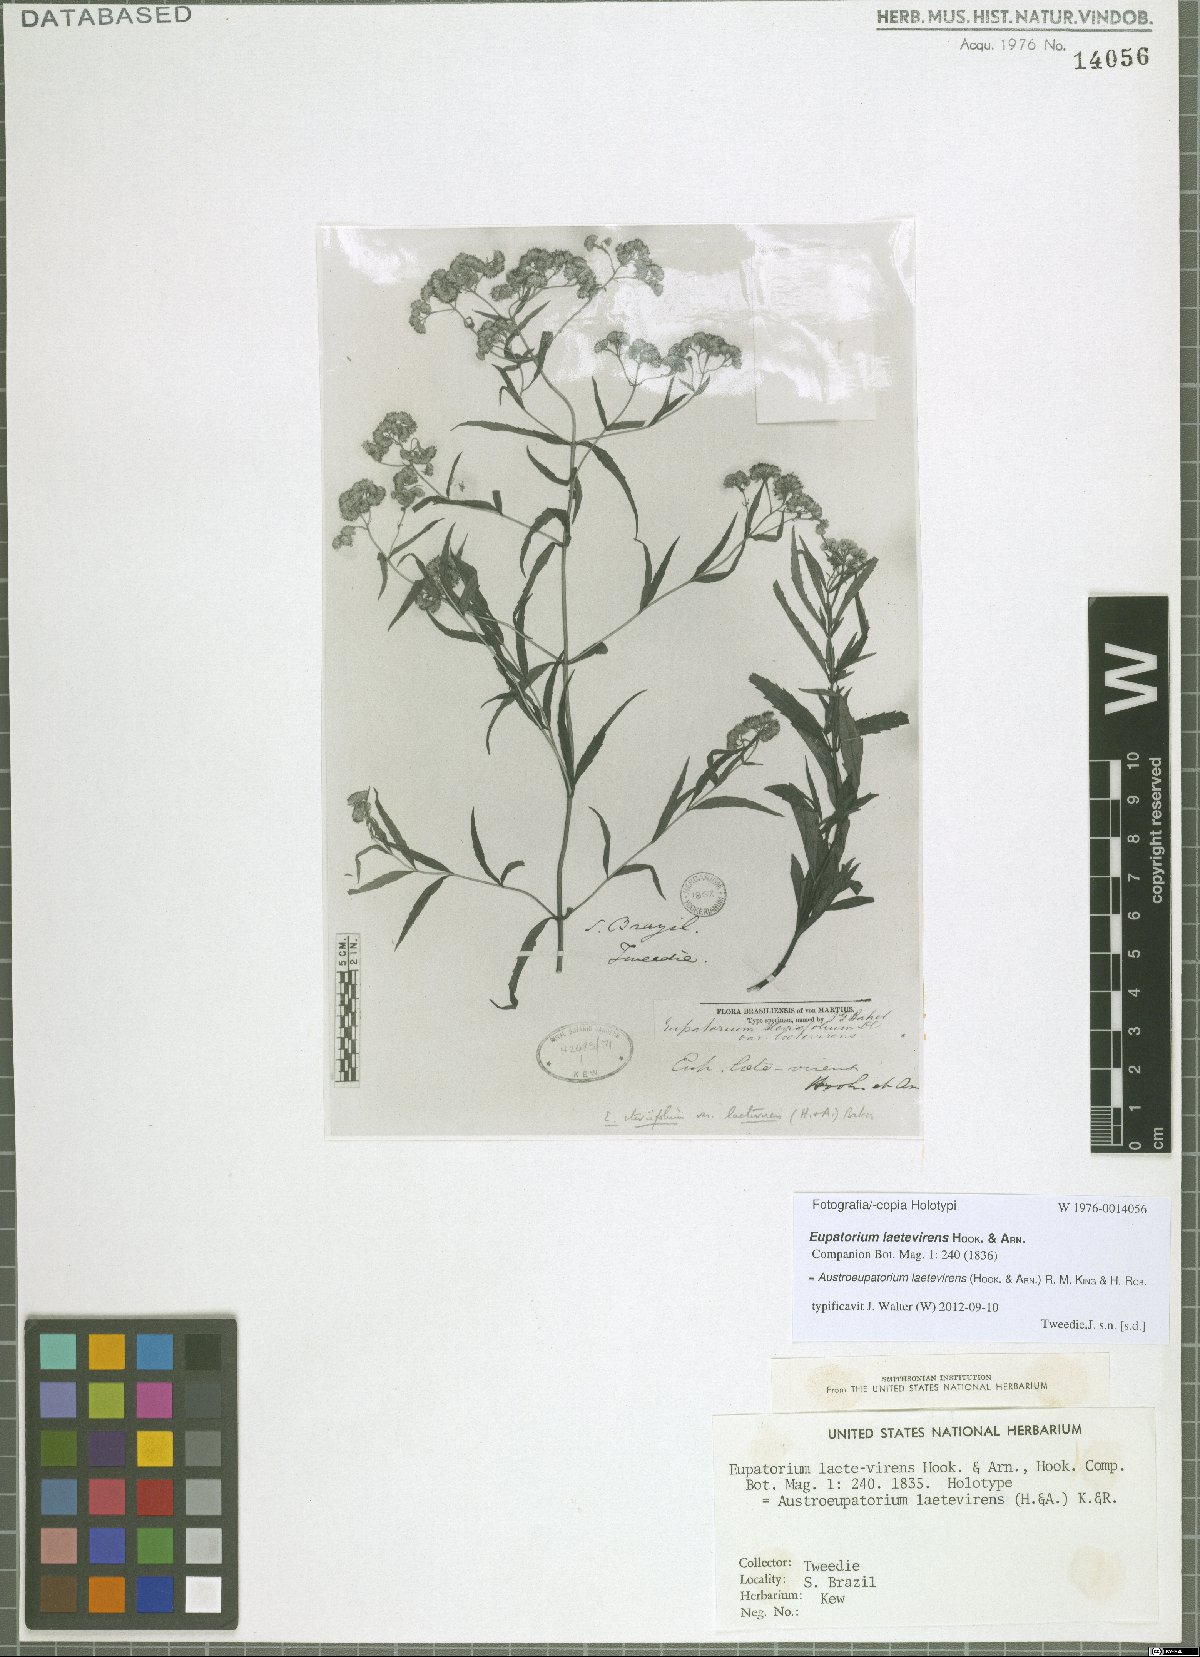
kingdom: Plantae
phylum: Tracheophyta
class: Magnoliopsida
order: Asterales
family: Asteraceae
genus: Austroeupatorium
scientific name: Austroeupatorium laetevirens
